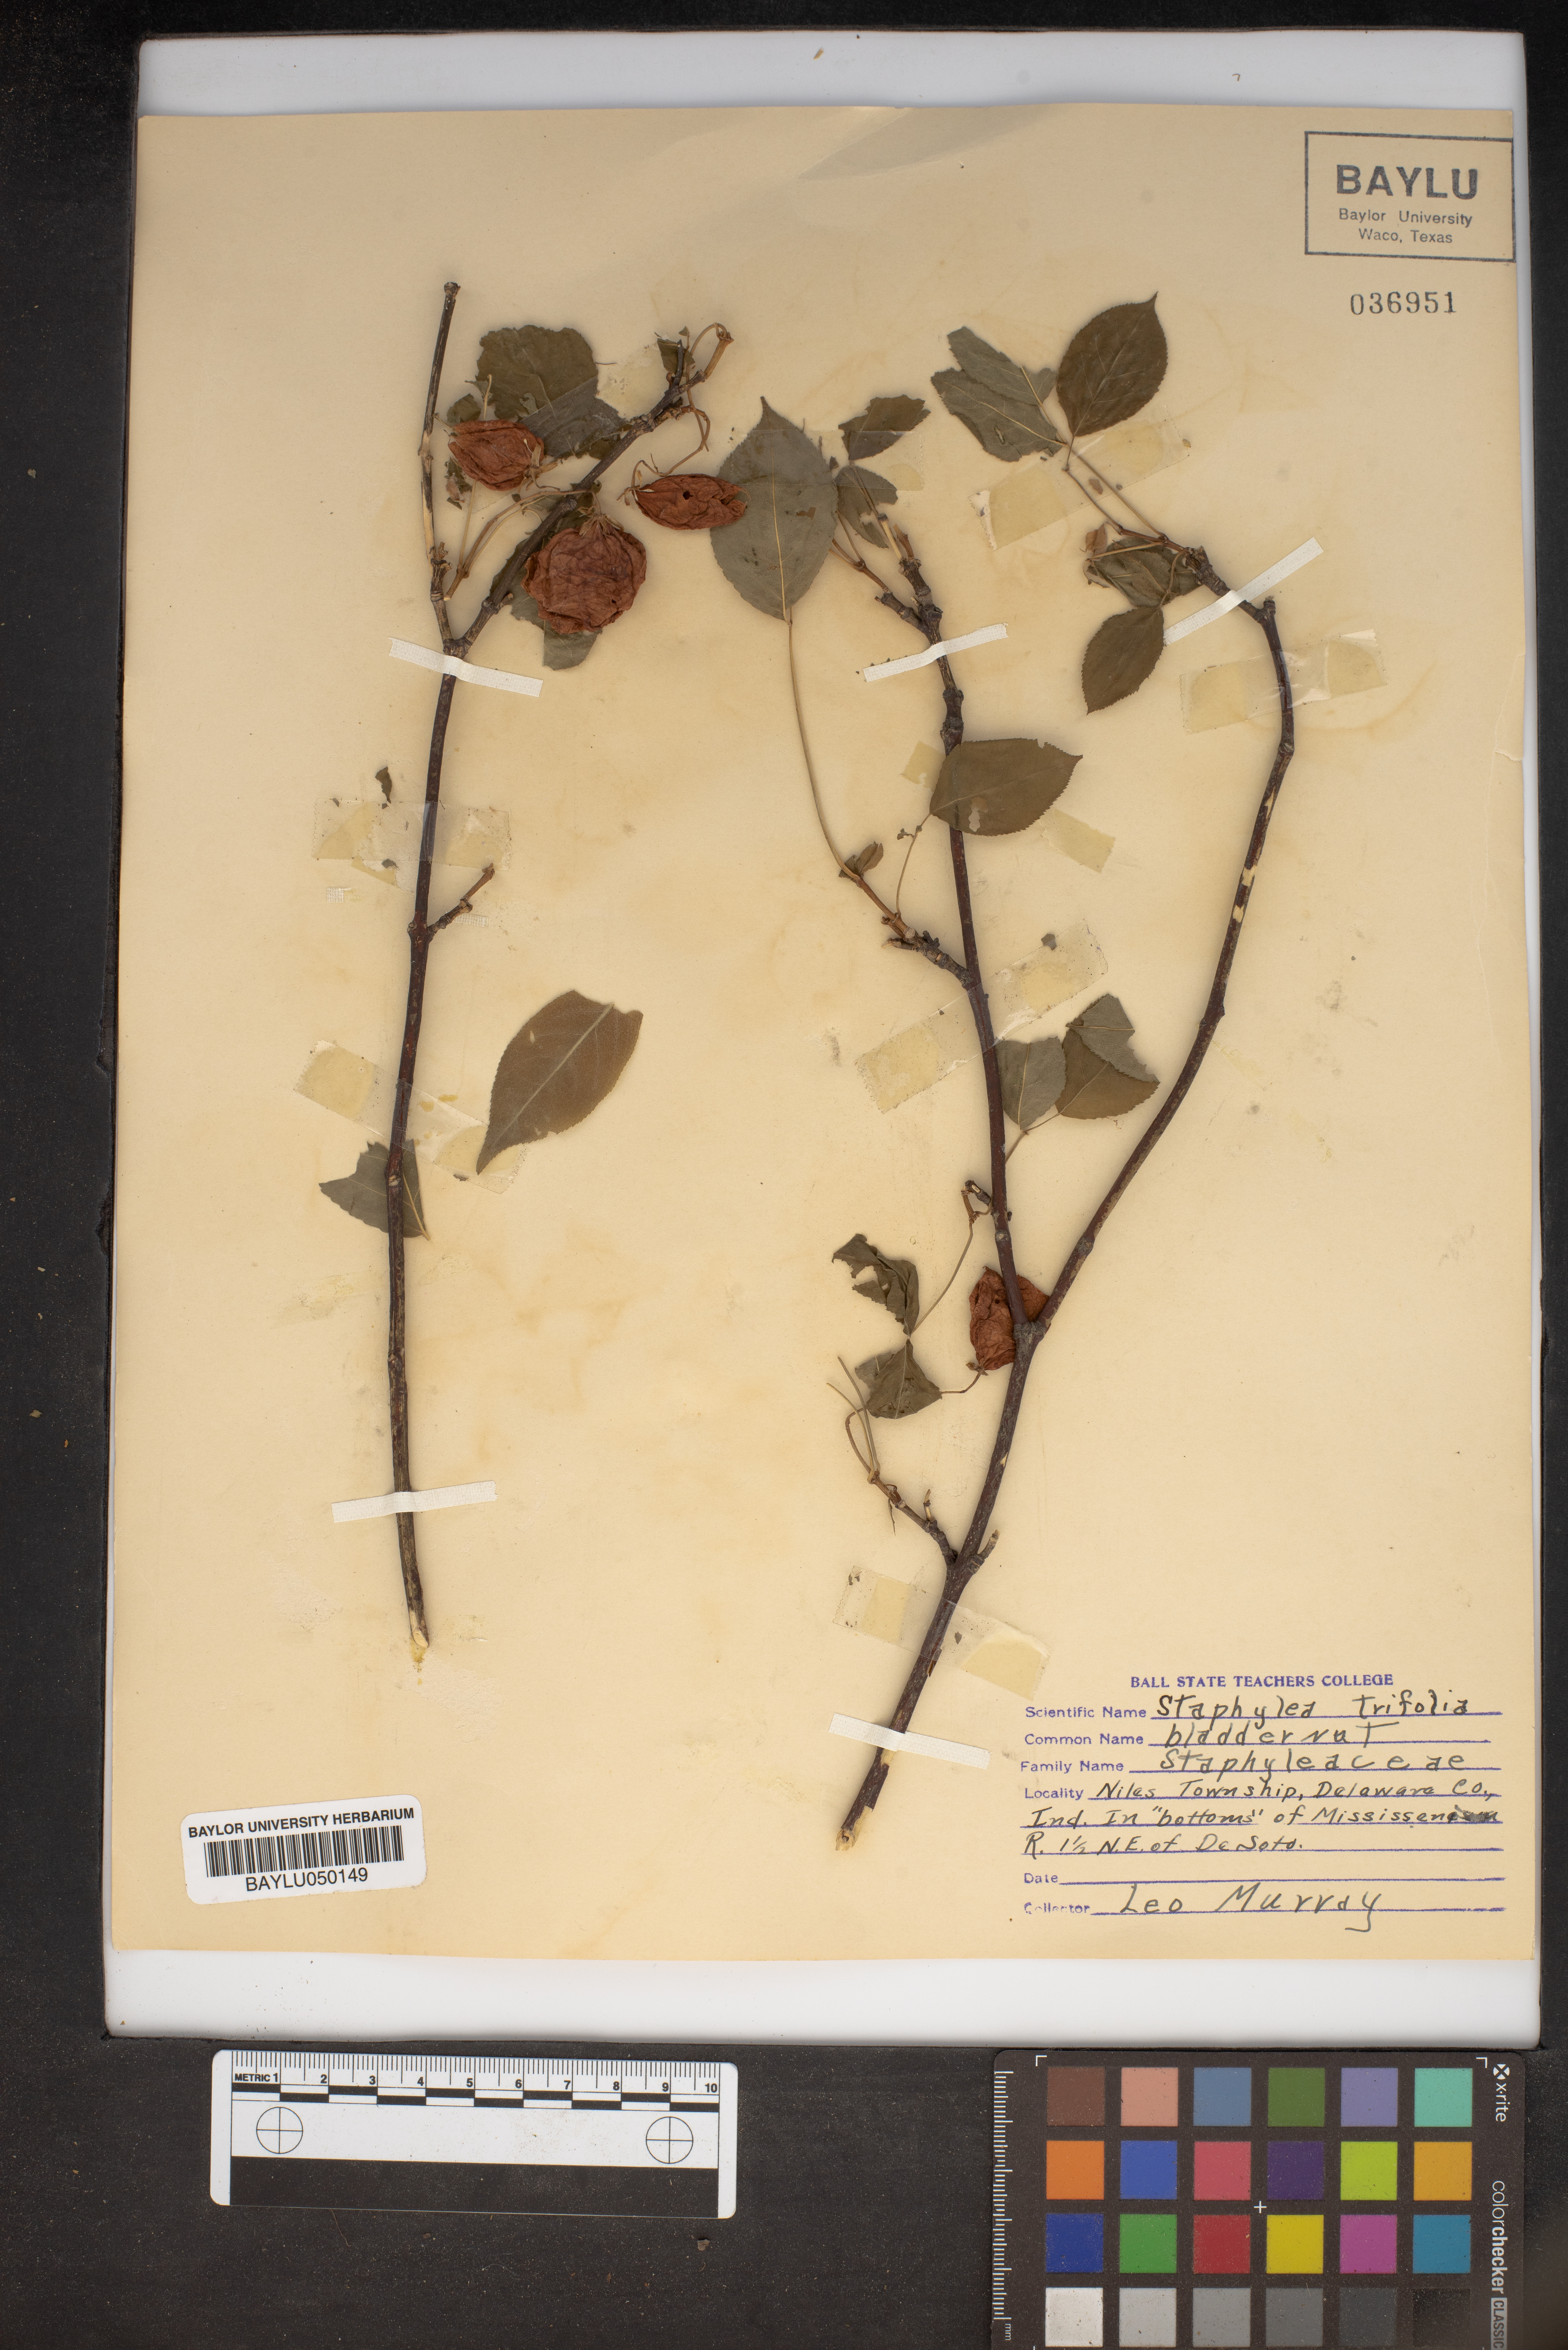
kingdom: Plantae
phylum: Tracheophyta
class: Magnoliopsida
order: Crossosomatales
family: Staphyleaceae
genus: Staphylea
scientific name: Staphylea trifolia
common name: American bladdernut
